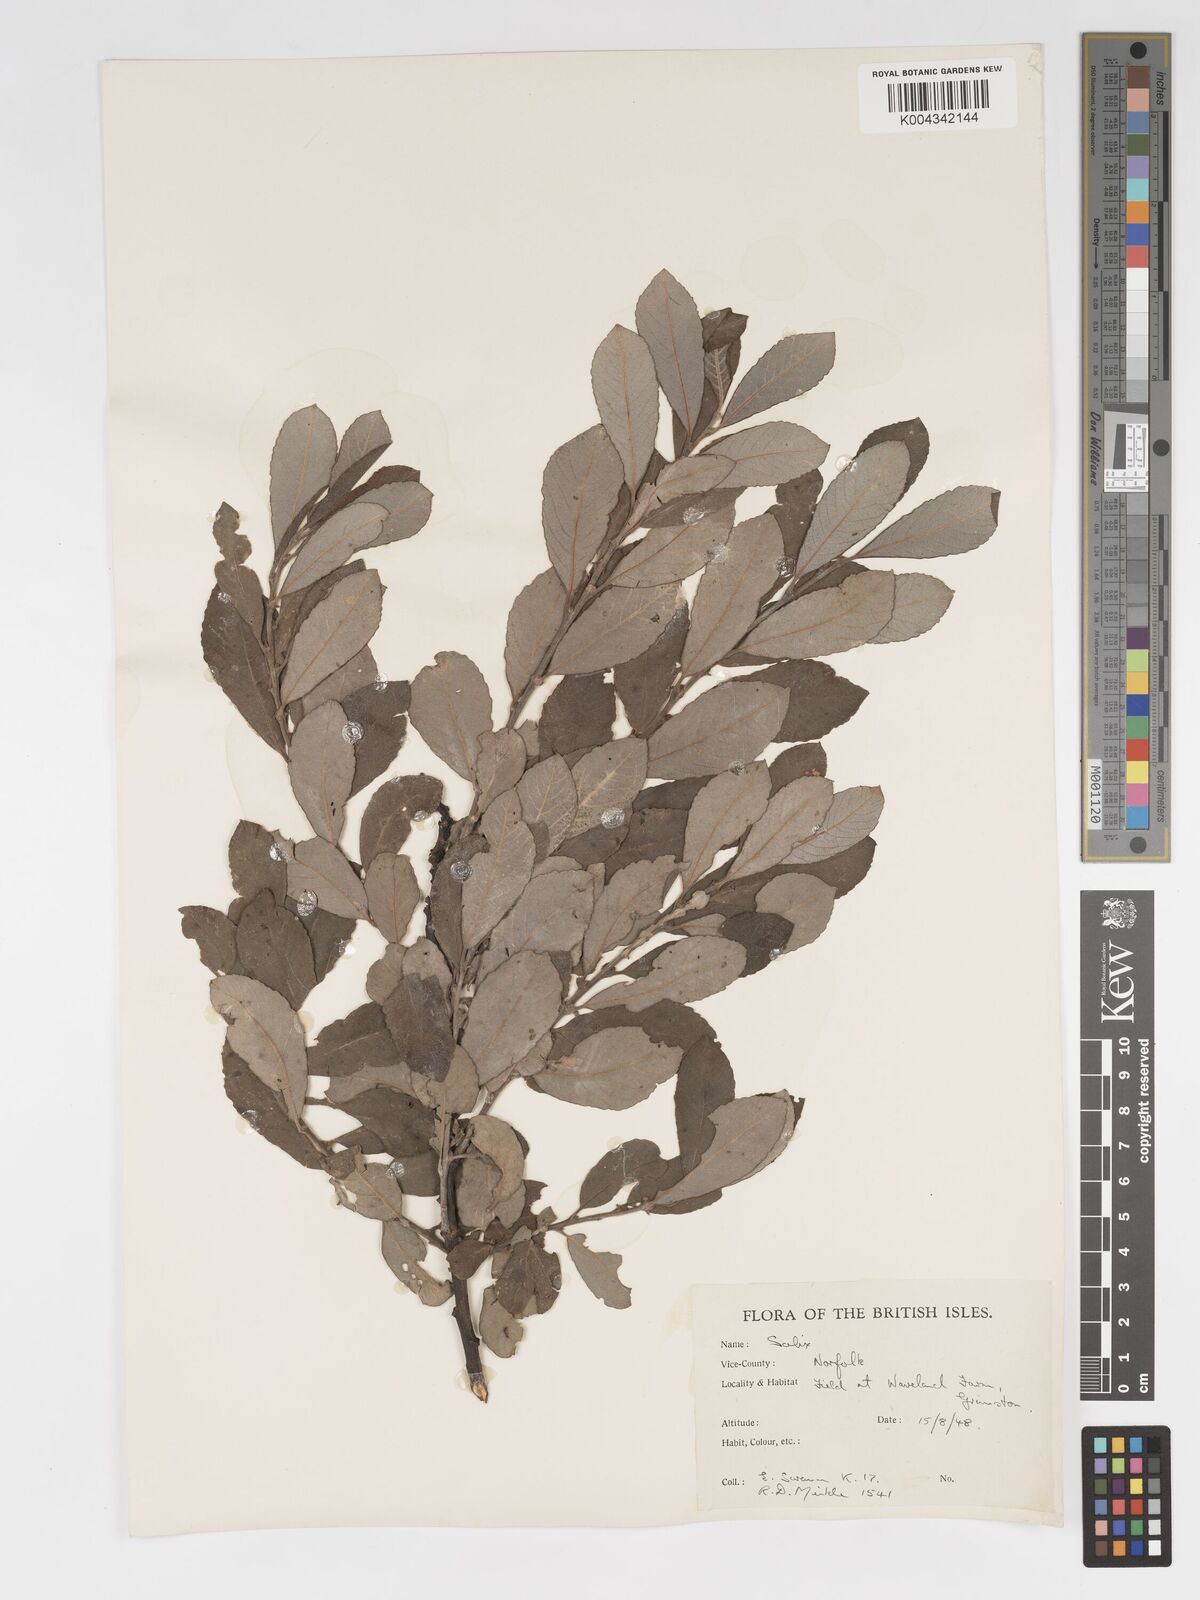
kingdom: Plantae
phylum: Tracheophyta
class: Magnoliopsida
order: Malpighiales
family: Salicaceae
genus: Salix
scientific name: Salix
